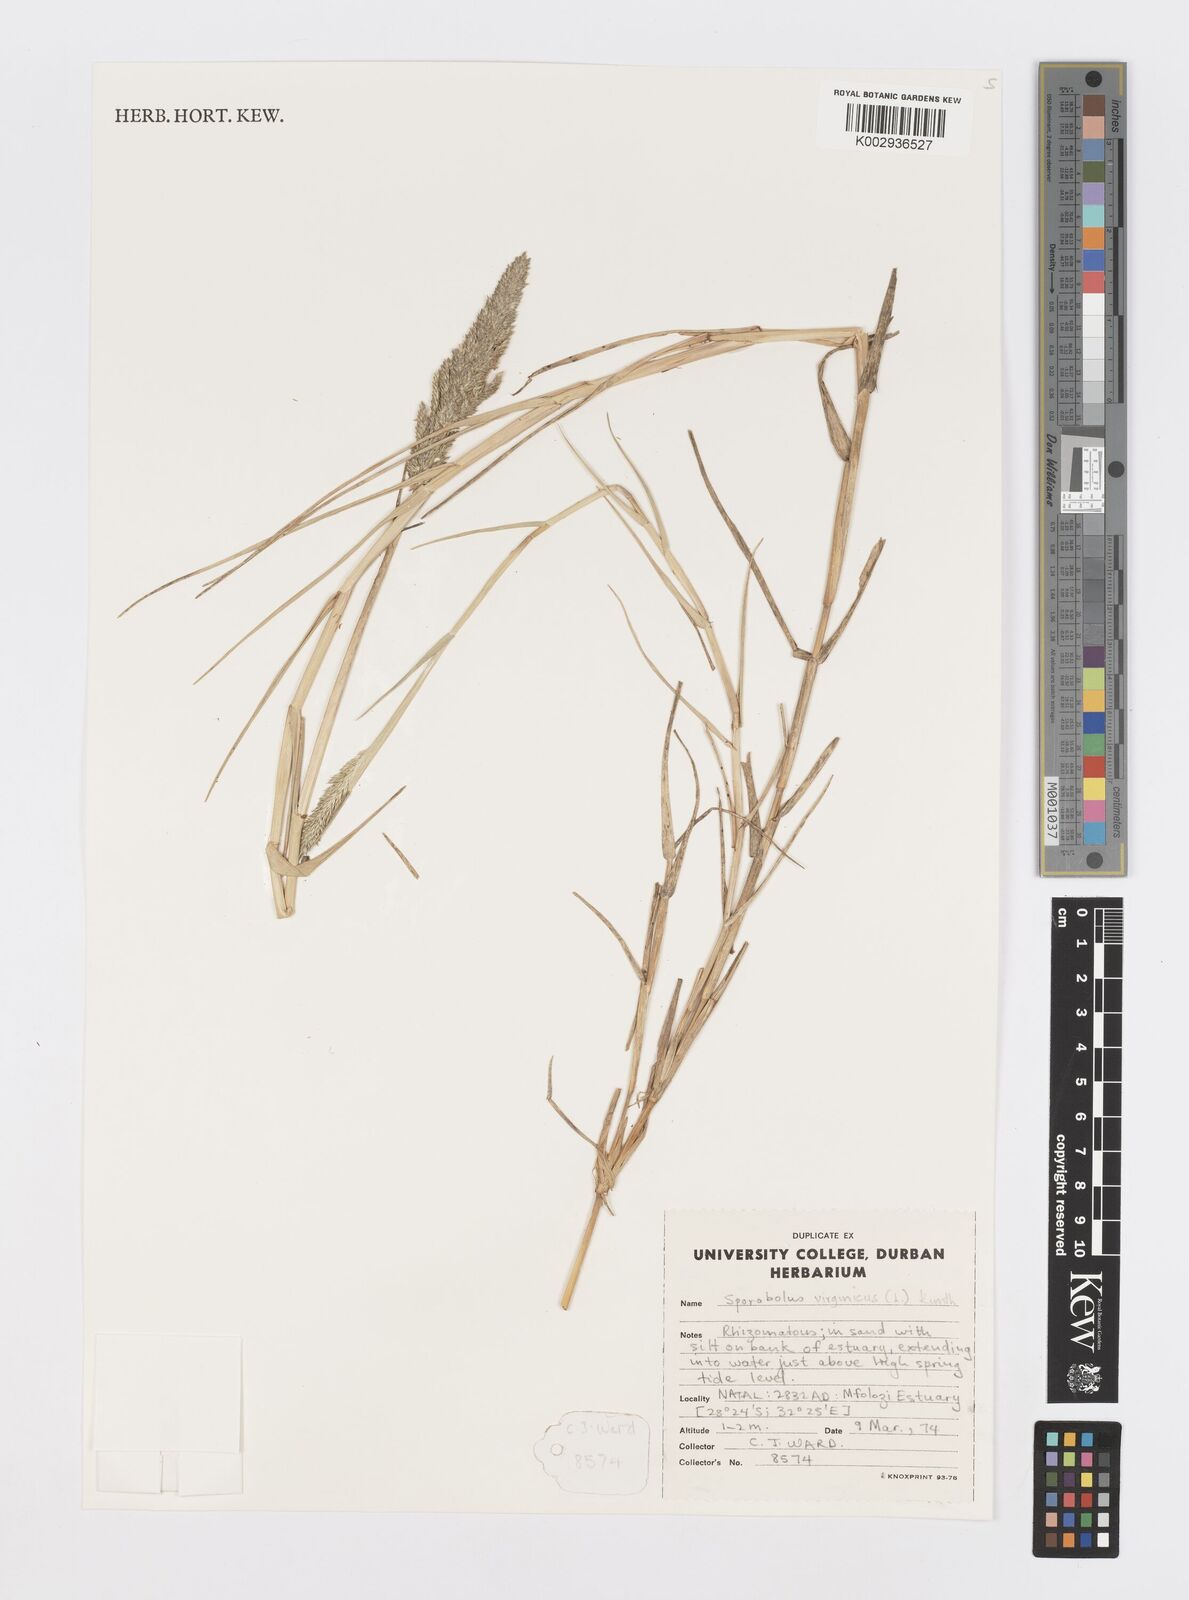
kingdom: Plantae
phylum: Tracheophyta
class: Liliopsida
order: Poales
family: Poaceae
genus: Sporobolus
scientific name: Sporobolus virginicus
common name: Beach dropseed
